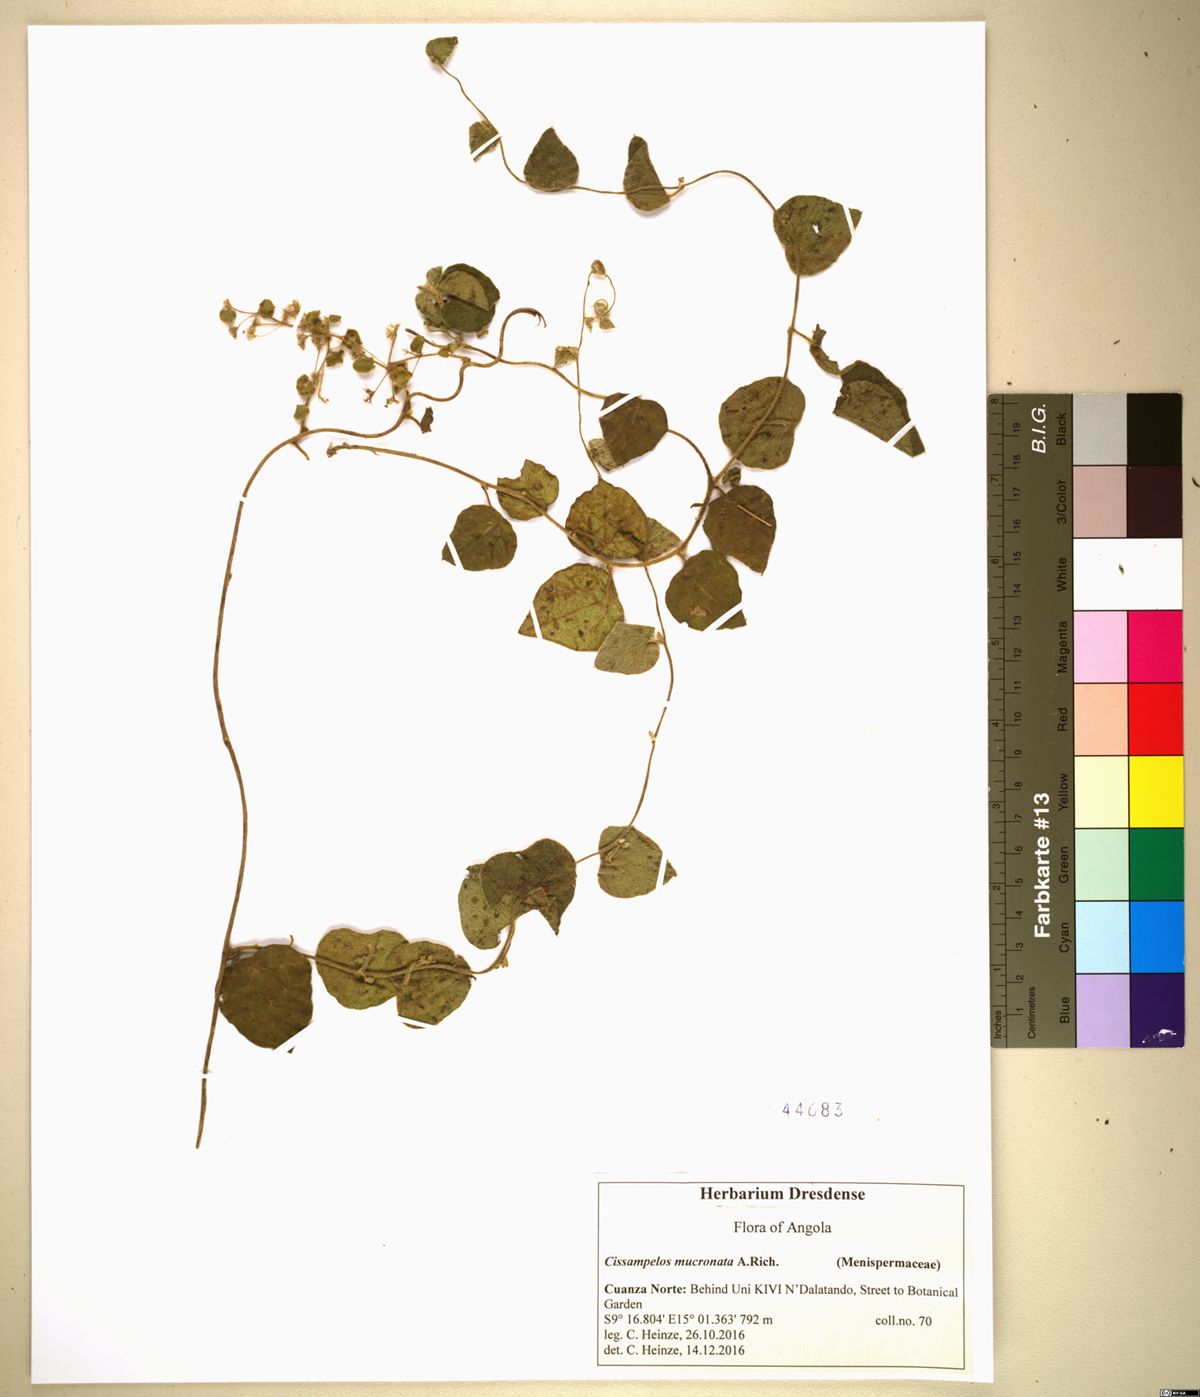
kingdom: Plantae
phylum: Tracheophyta
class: Magnoliopsida
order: Ranunculales
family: Menispermaceae
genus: Cissampelos
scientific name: Cissampelos mucronata
